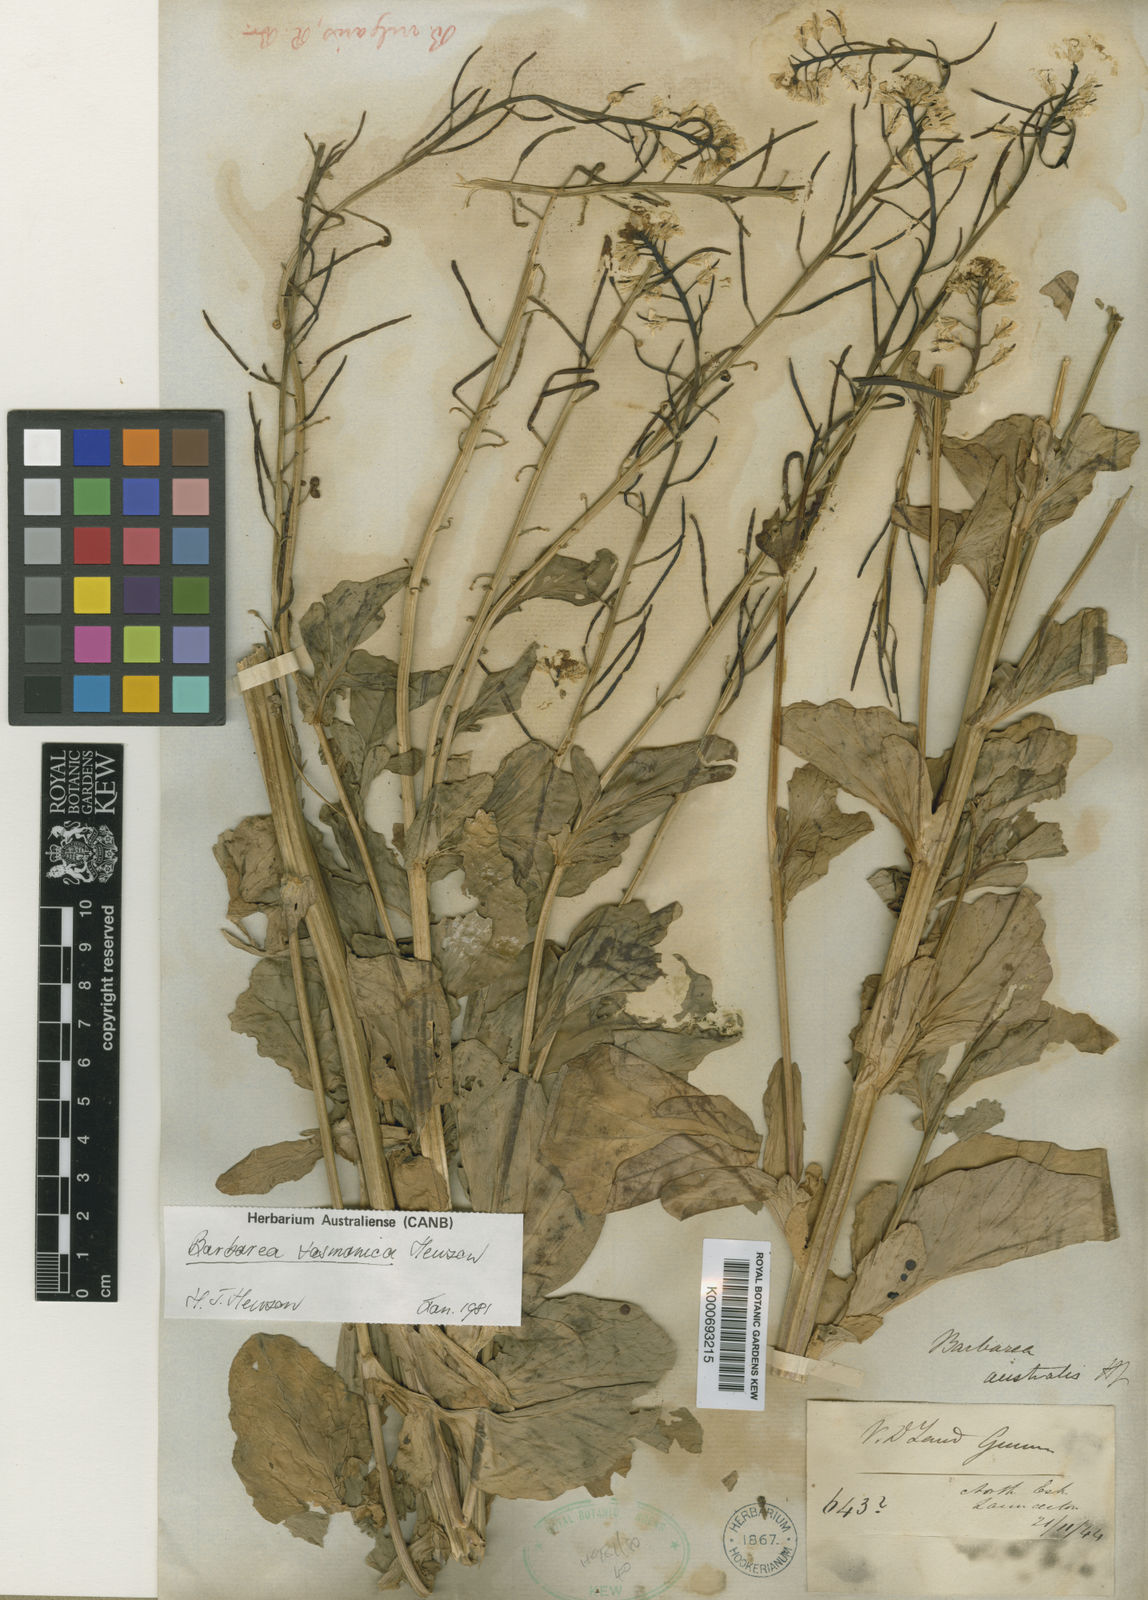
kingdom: Plantae
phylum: Tracheophyta
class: Magnoliopsida
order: Brassicales
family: Brassicaceae
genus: Barbarea
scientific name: Barbarea australis
